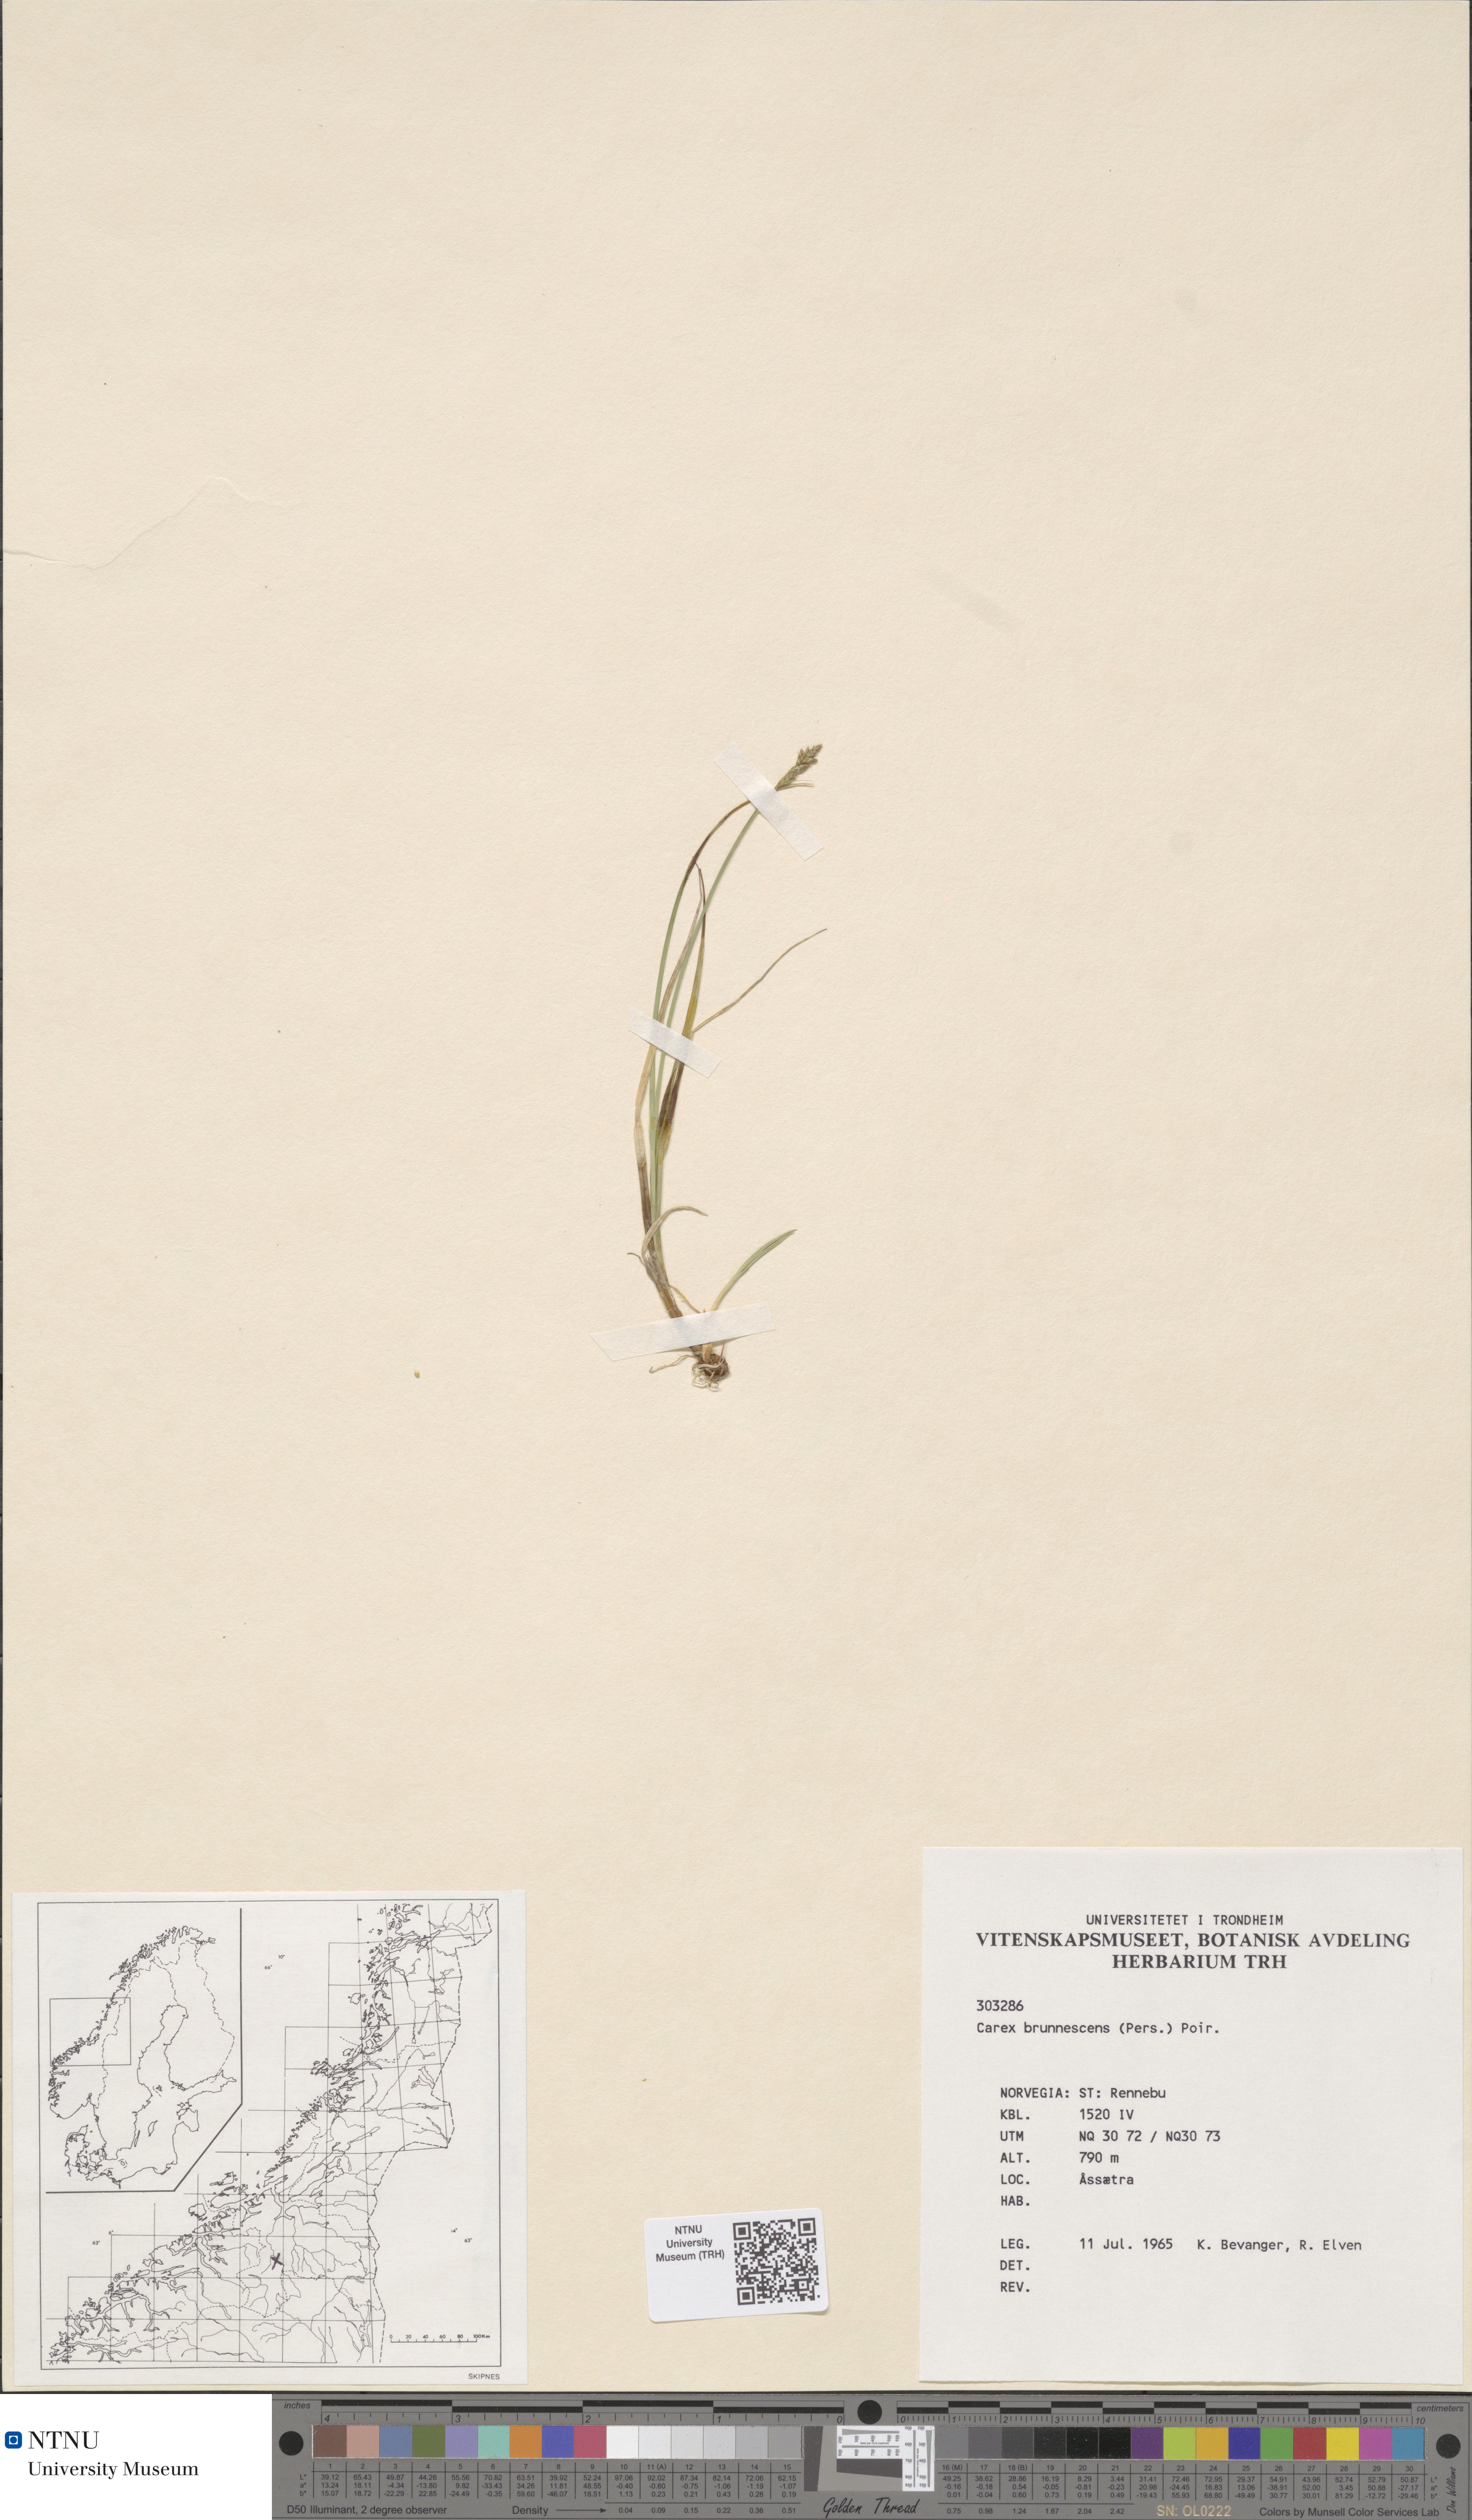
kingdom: Plantae
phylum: Tracheophyta
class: Liliopsida
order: Poales
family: Cyperaceae
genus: Carex
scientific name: Carex brunnescens
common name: Brown sedge
